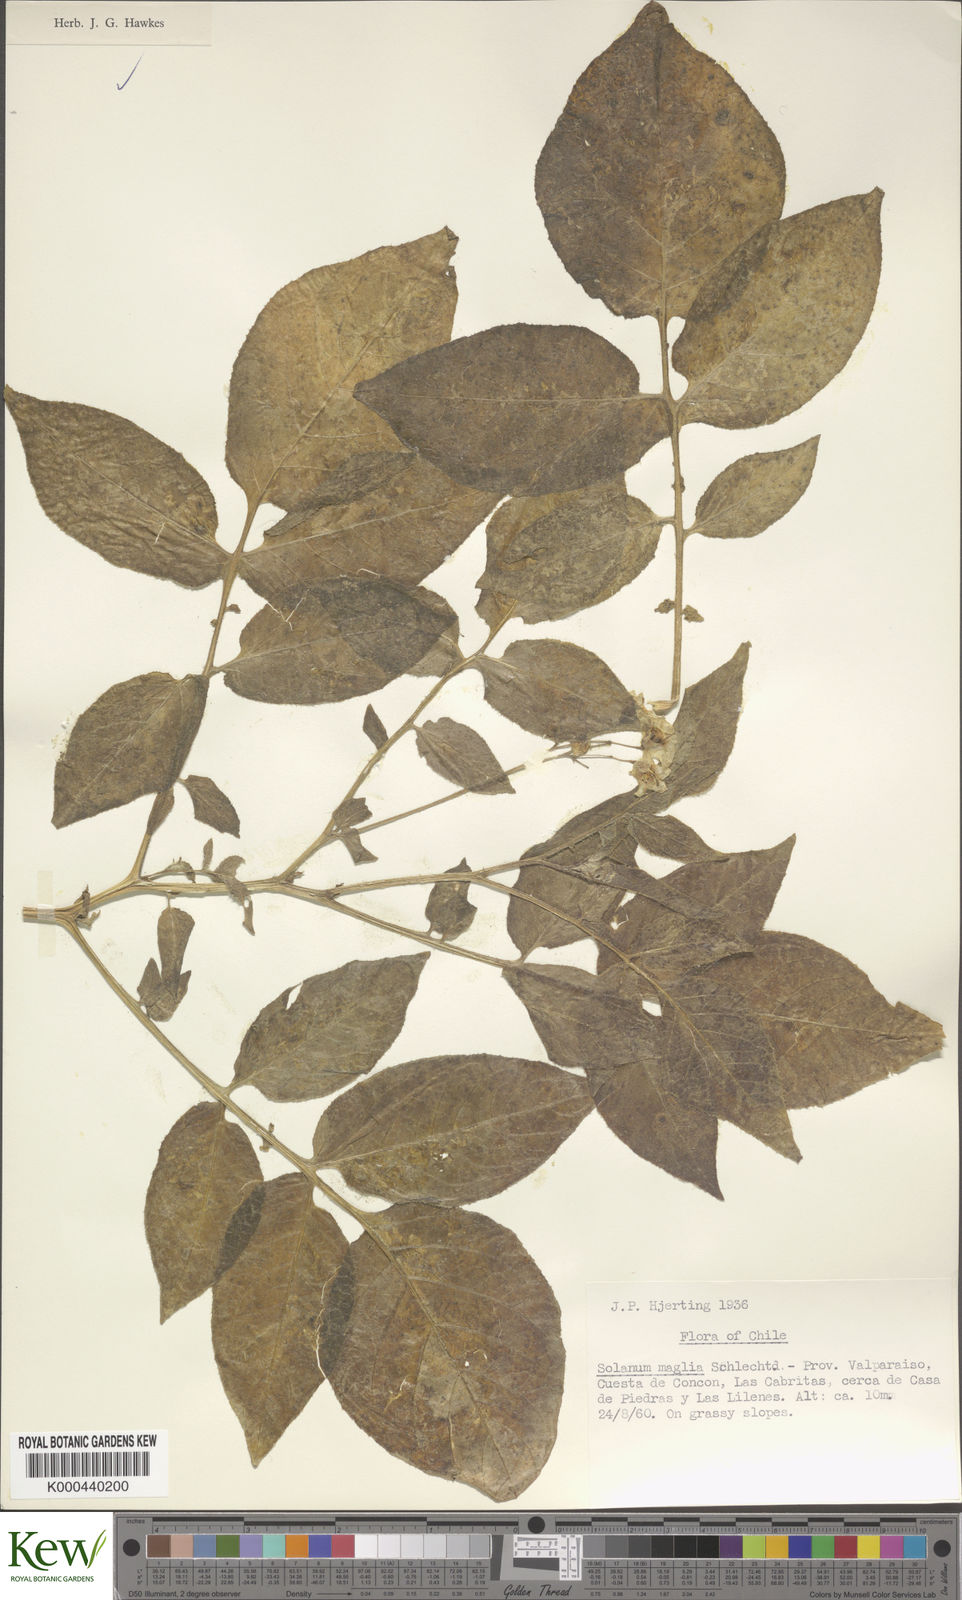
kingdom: Plantae
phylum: Tracheophyta
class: Magnoliopsida
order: Solanales
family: Solanaceae
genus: Solanum
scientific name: Solanum maglia
